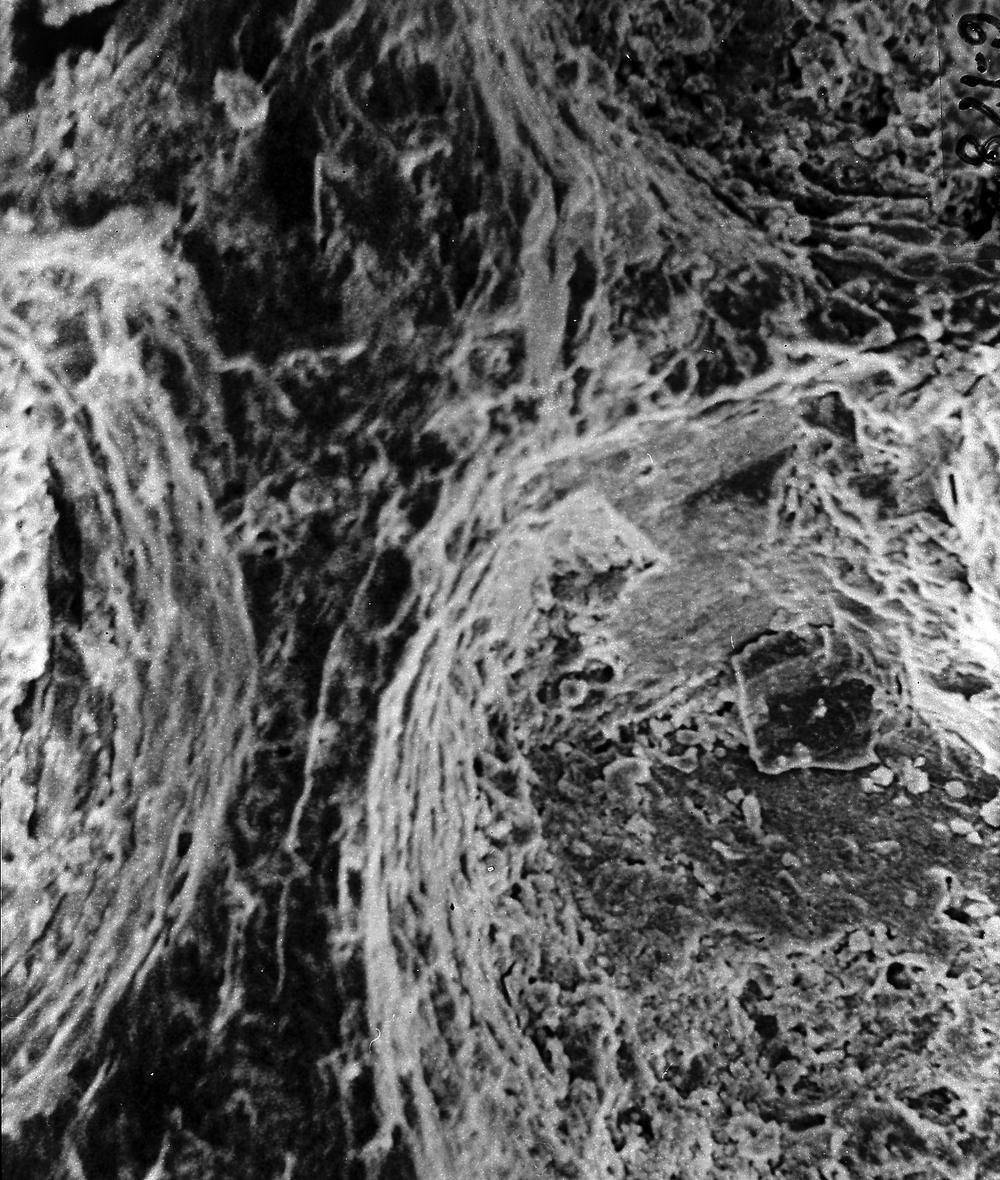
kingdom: Animalia
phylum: Brachiopoda
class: Rhynchonellata
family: Saukrodictyidae
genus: Saukrodictya
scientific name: Saukrodictya
